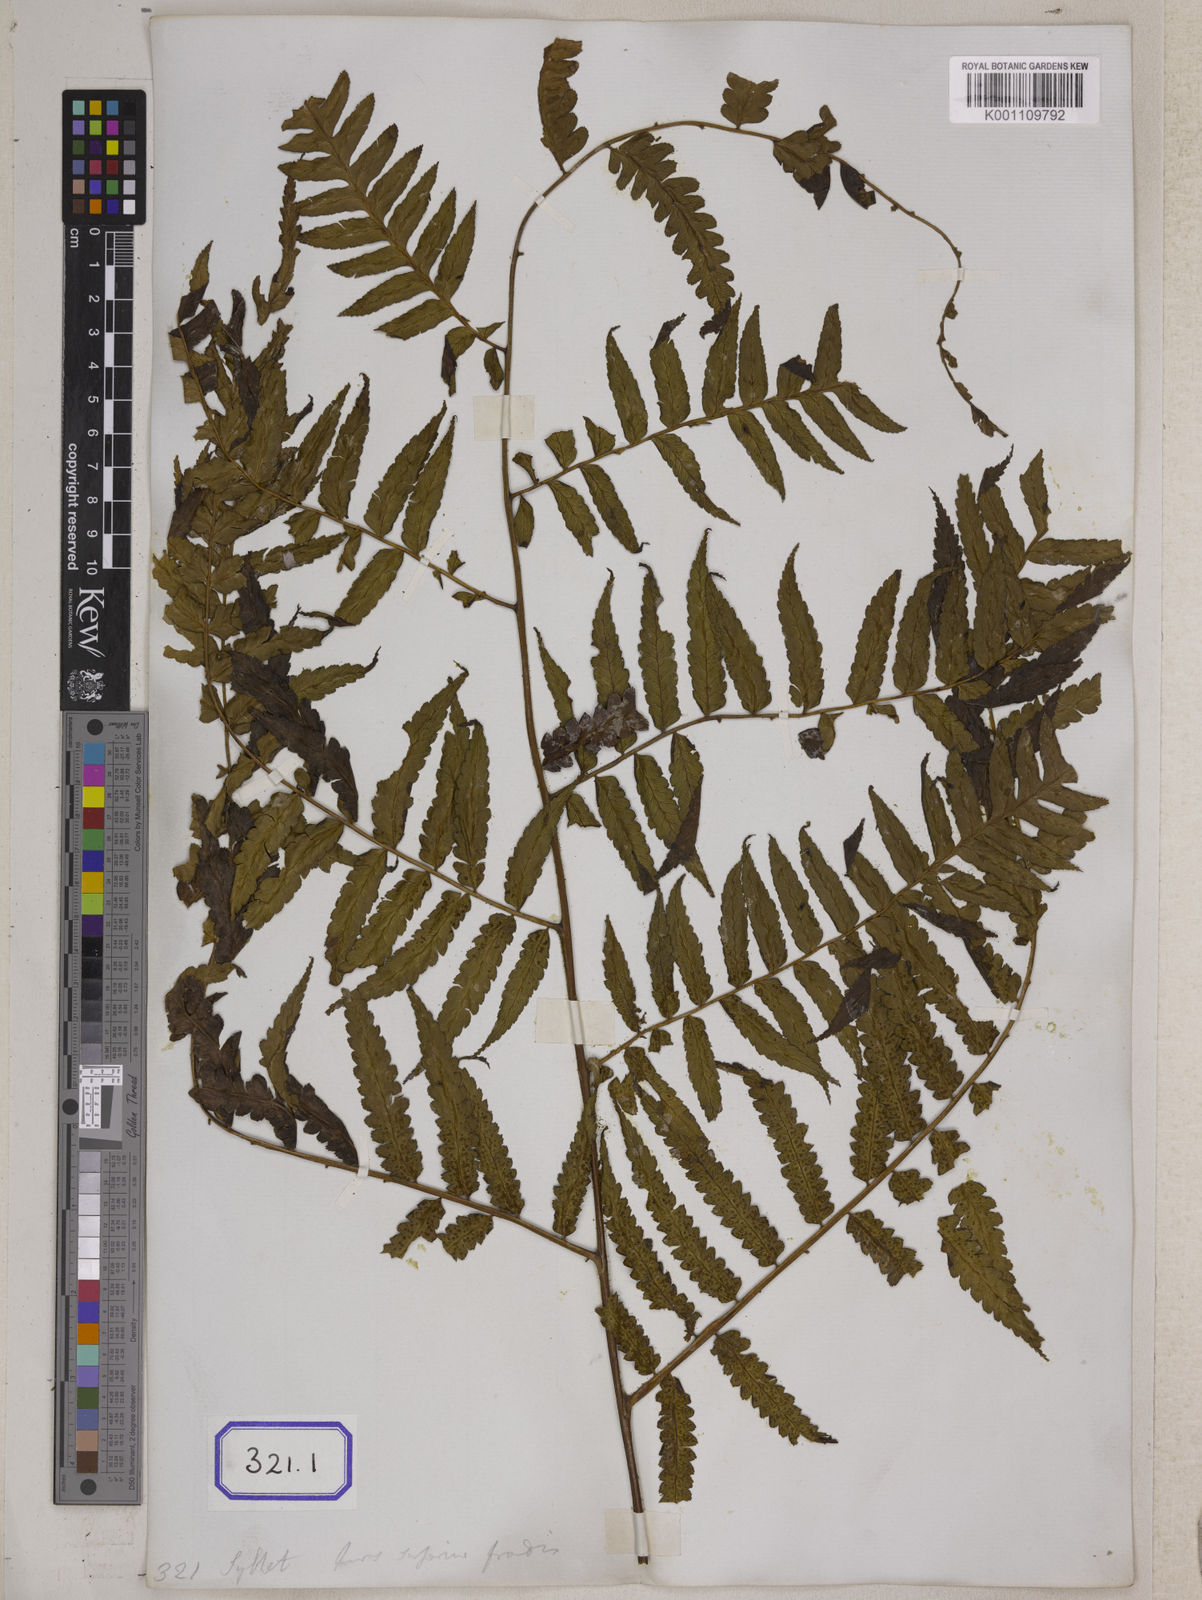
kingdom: Plantae
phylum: Tracheophyta
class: Polypodiopsida
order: Cyatheales
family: Cyatheaceae
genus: Gymnosphaera
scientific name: Gymnosphaera gigantea
